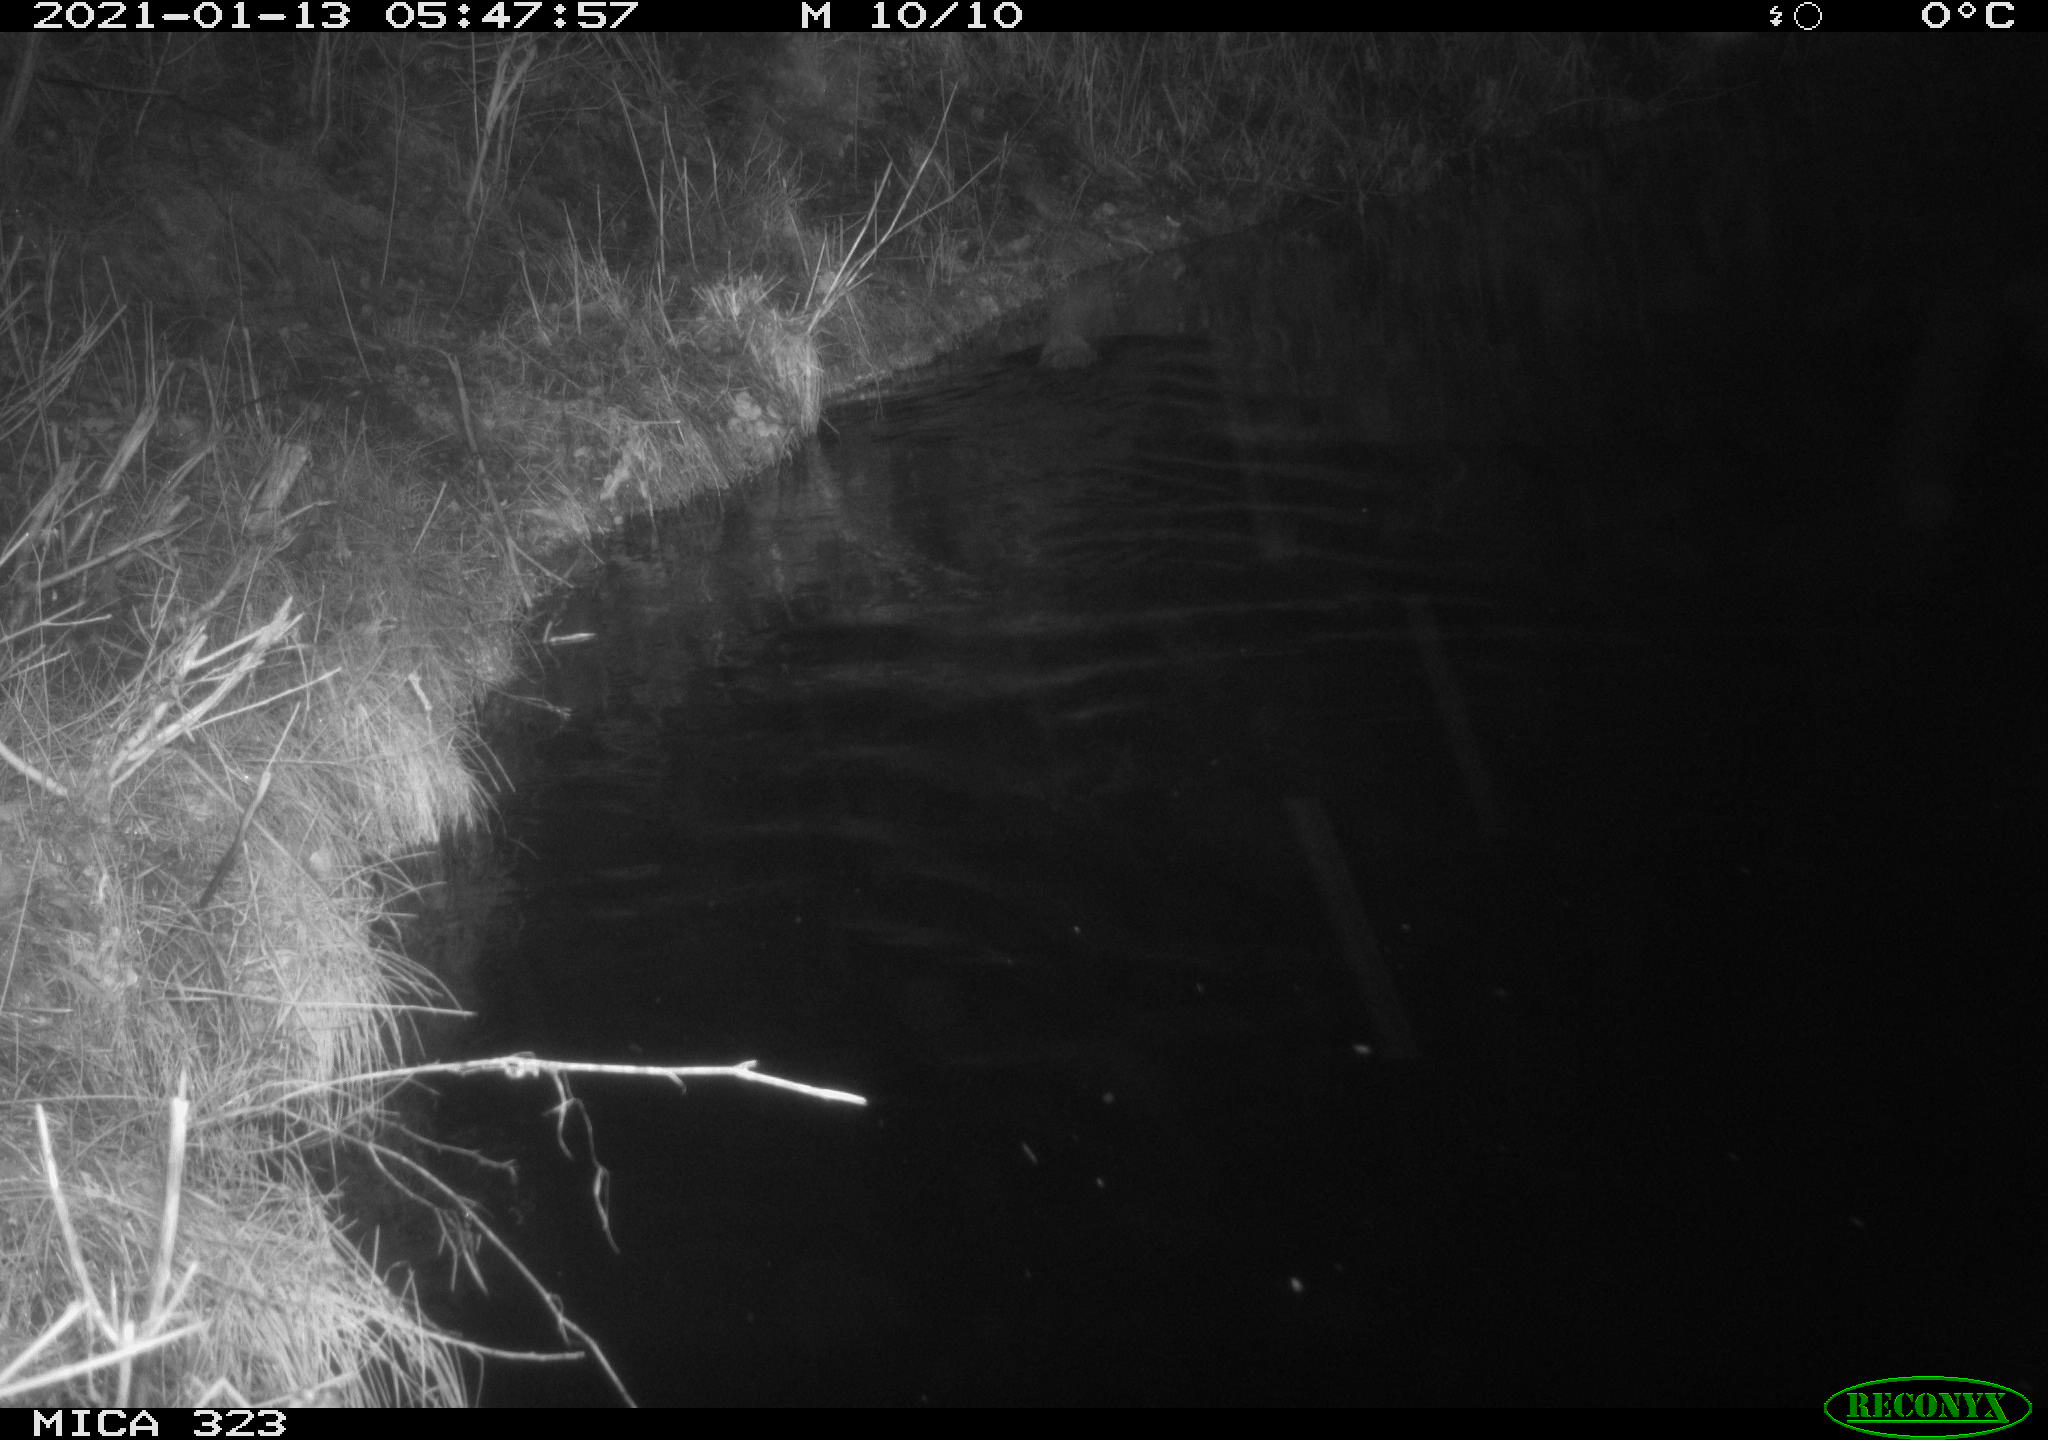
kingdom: Animalia
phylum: Chordata
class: Mammalia
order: Rodentia
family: Myocastoridae
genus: Myocastor
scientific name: Myocastor coypus
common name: Coypu
